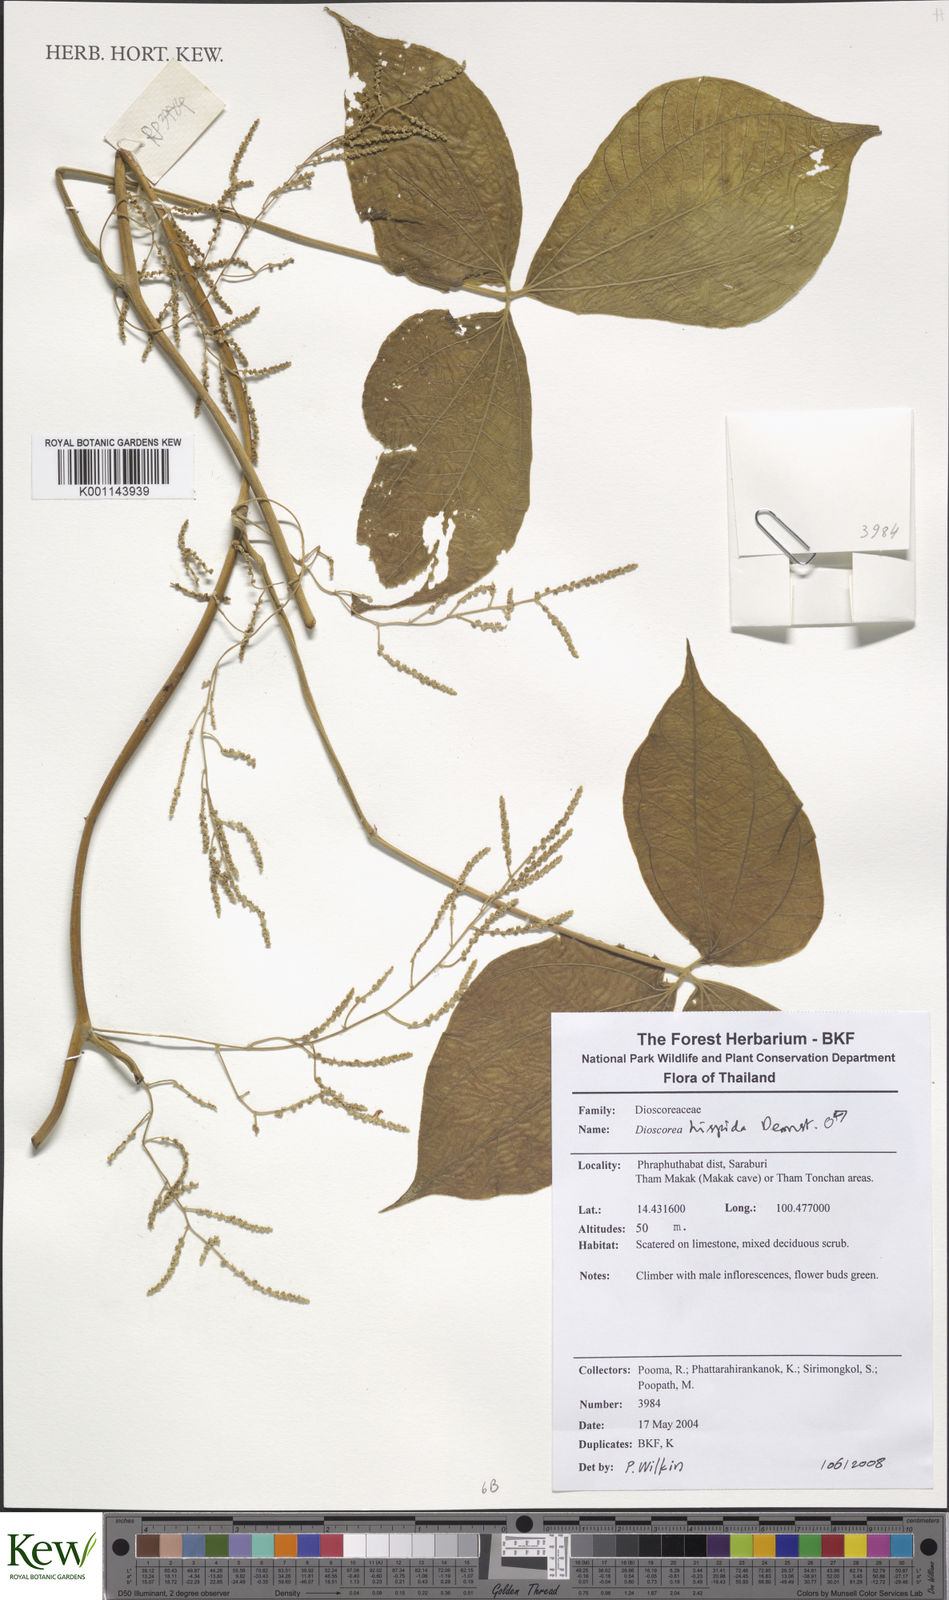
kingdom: Plantae
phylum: Tracheophyta
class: Liliopsida
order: Dioscoreales
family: Dioscoreaceae
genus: Dioscorea
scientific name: Dioscorea hispida
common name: Asiatic bitter yam
